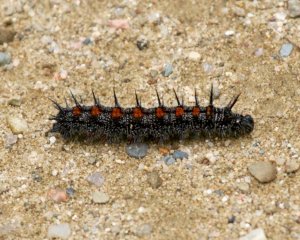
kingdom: Animalia
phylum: Arthropoda
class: Insecta
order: Lepidoptera
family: Nymphalidae
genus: Nymphalis
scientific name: Nymphalis antiopa
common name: Mourning Cloak
